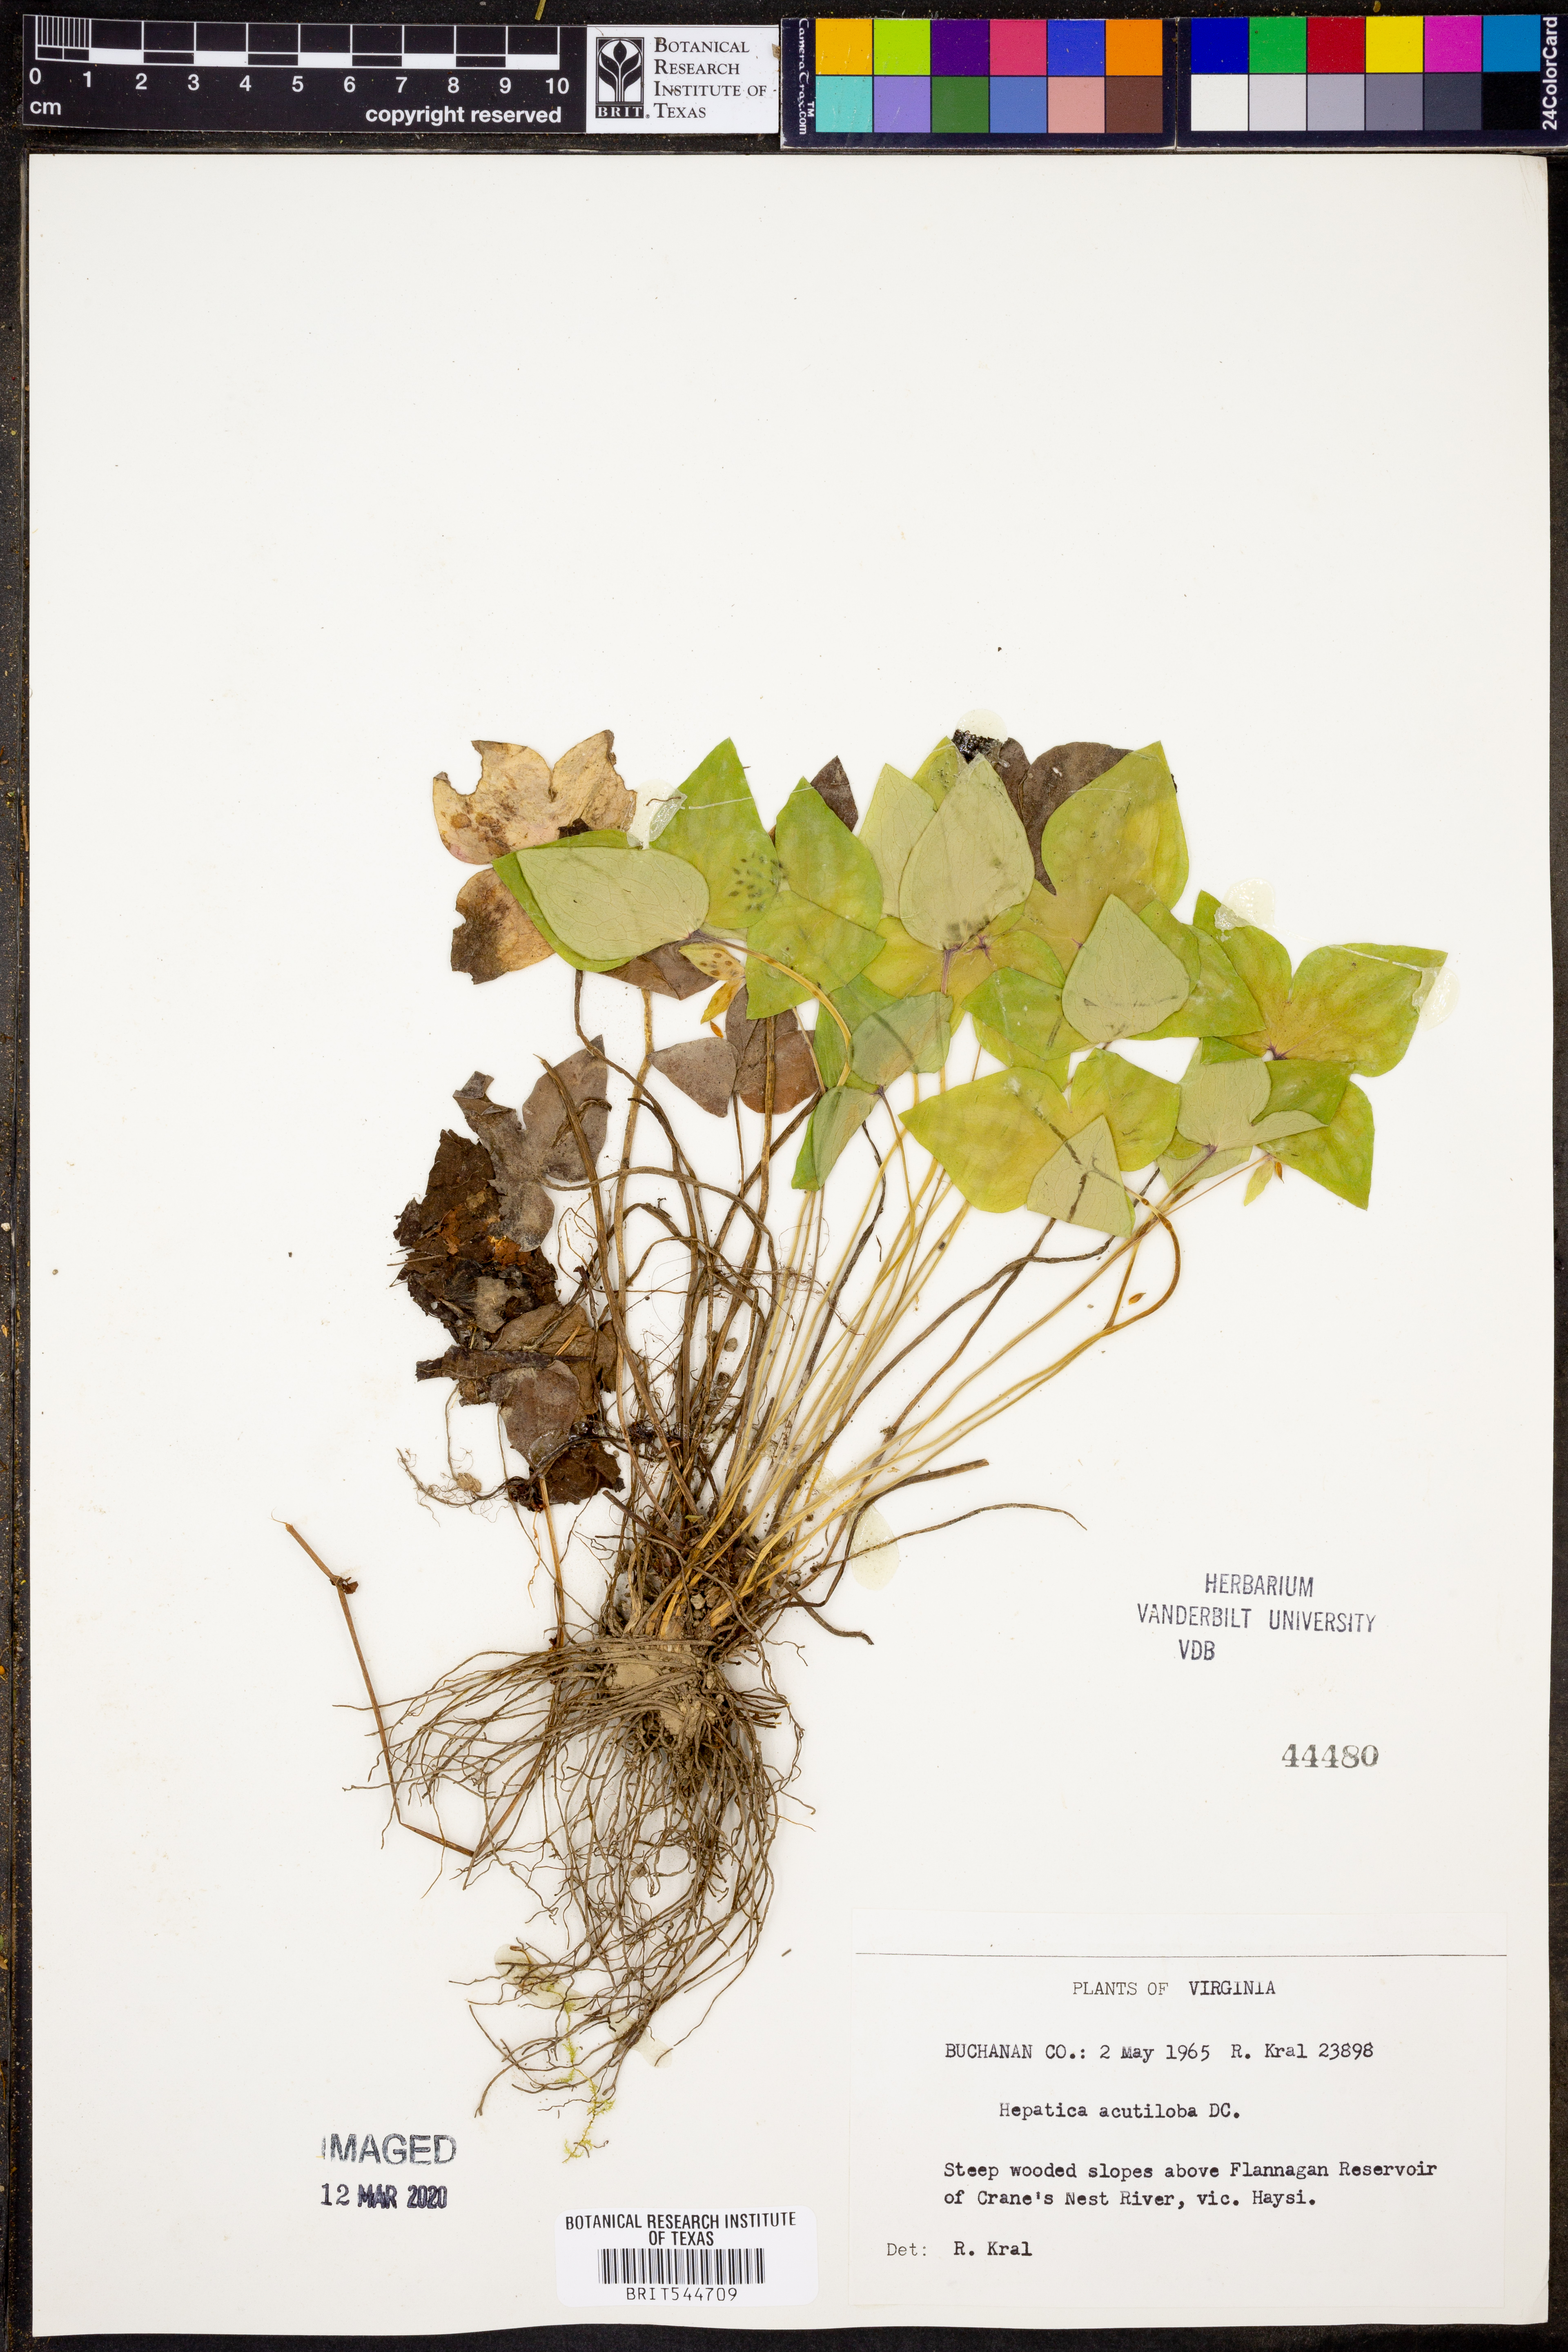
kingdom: Plantae
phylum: Tracheophyta
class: Magnoliopsida
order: Ranunculales
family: Ranunculaceae
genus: Hepatica
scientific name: Hepatica acutiloba
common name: Sharp-lobed hepatica
